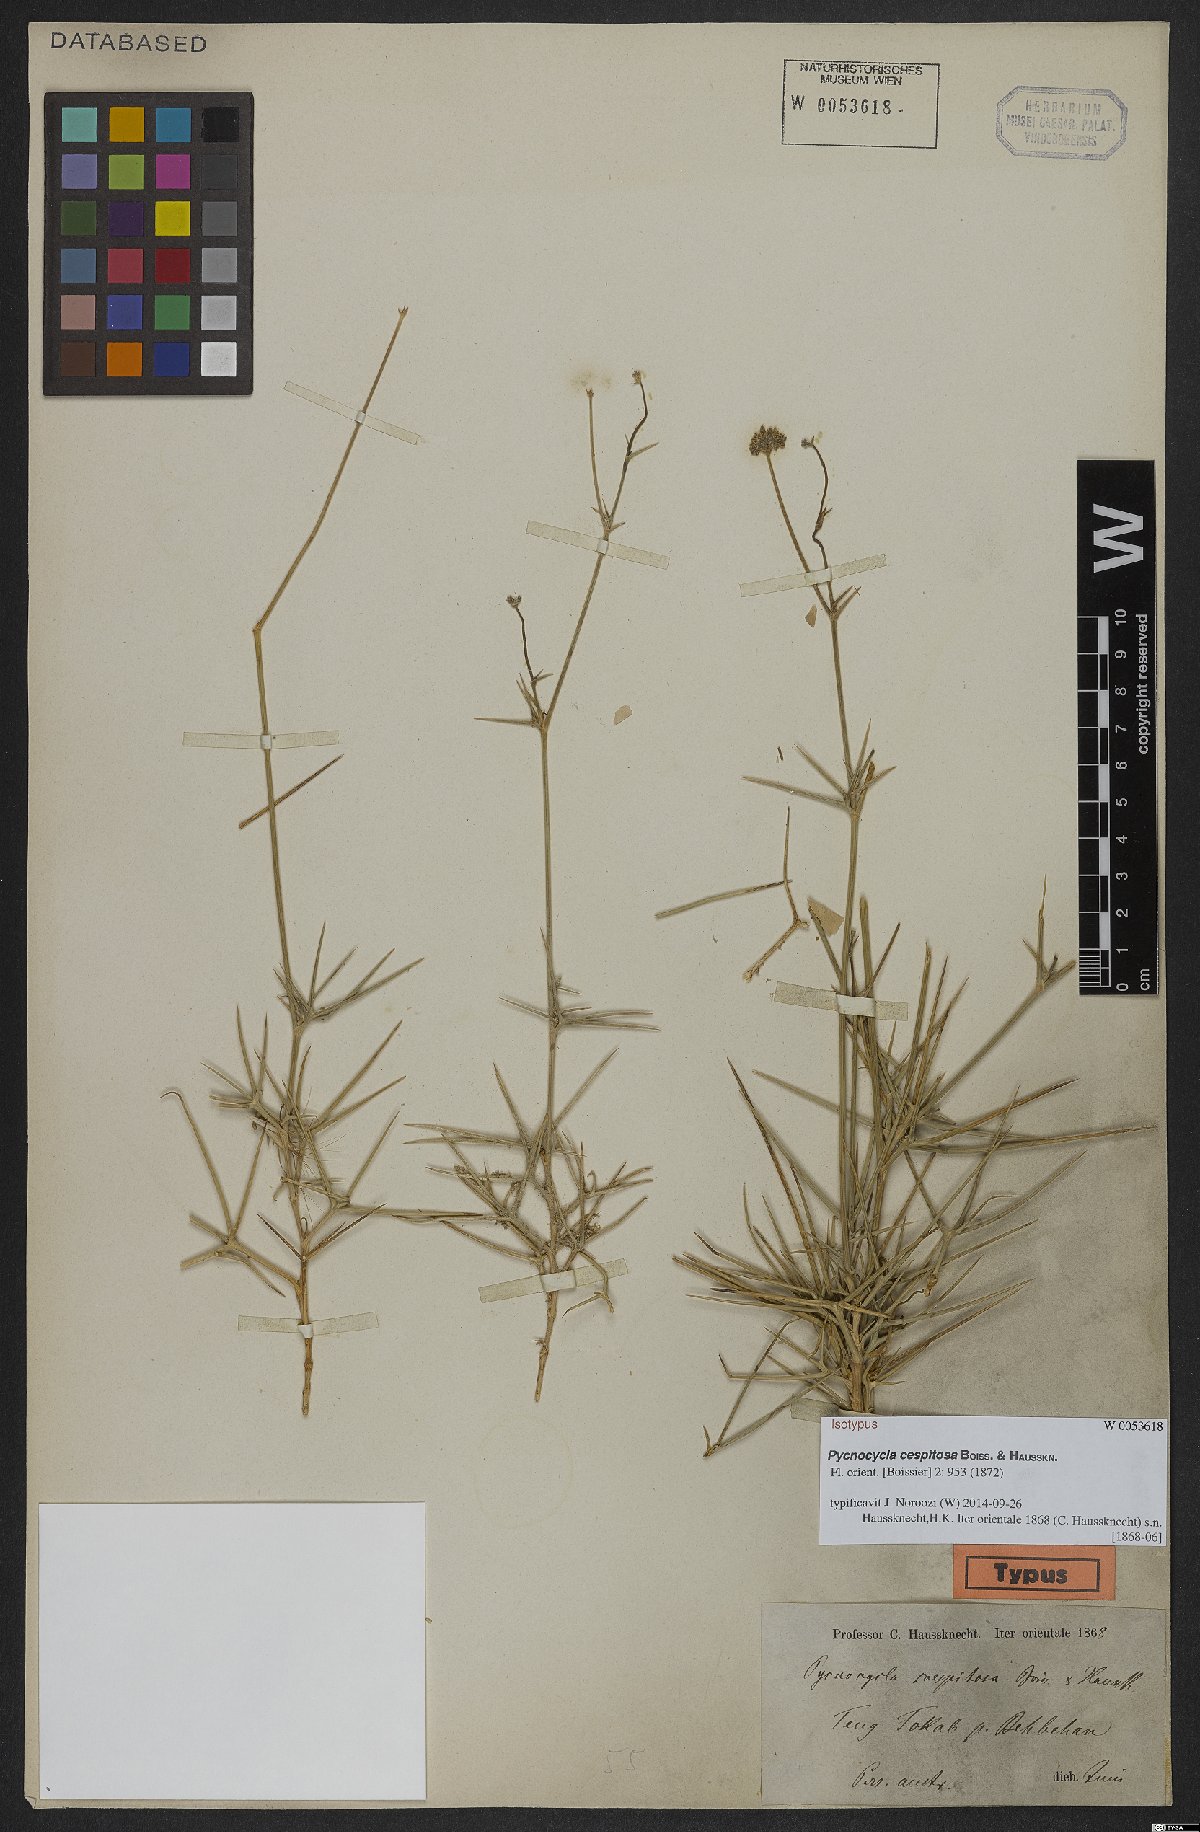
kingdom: Plantae
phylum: Tracheophyta
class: Magnoliopsida
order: Apiales
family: Apiaceae
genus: Pycnocycla
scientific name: Pycnocycla cespitosa
